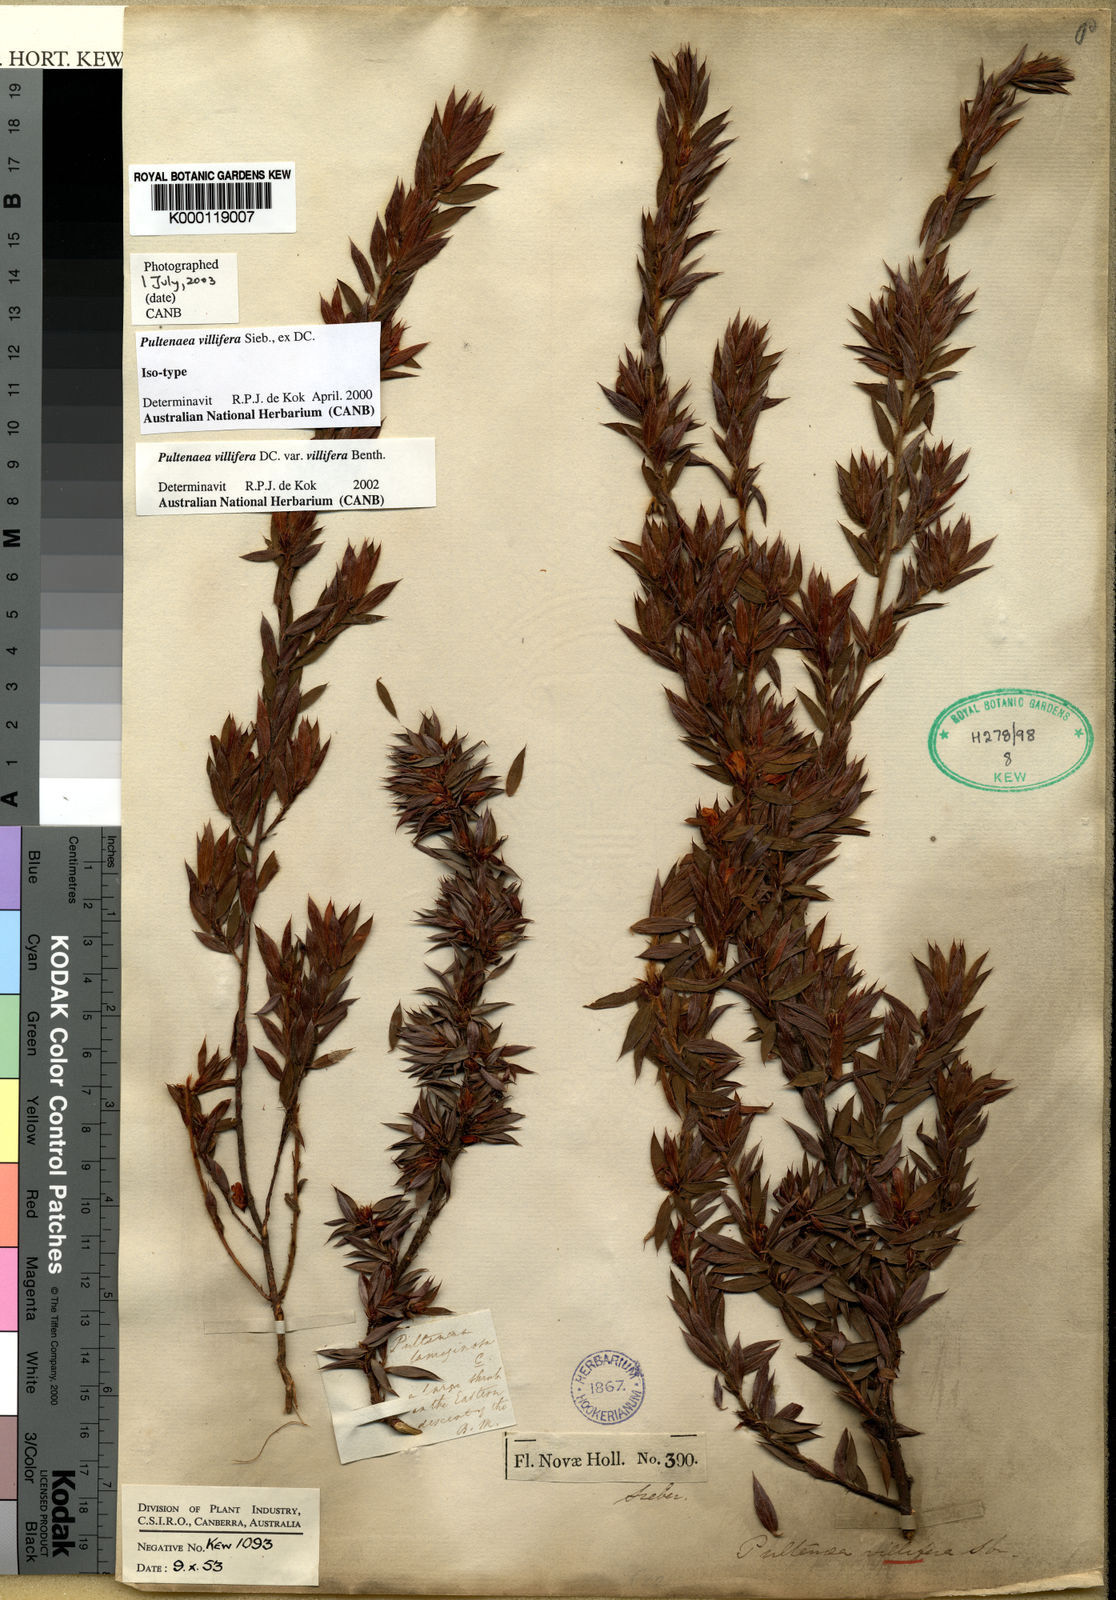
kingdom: Plantae
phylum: Tracheophyta
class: Magnoliopsida
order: Fabales
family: Fabaceae
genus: Pultenaea
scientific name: Pultenaea villifera
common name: Yellow bush-pea
